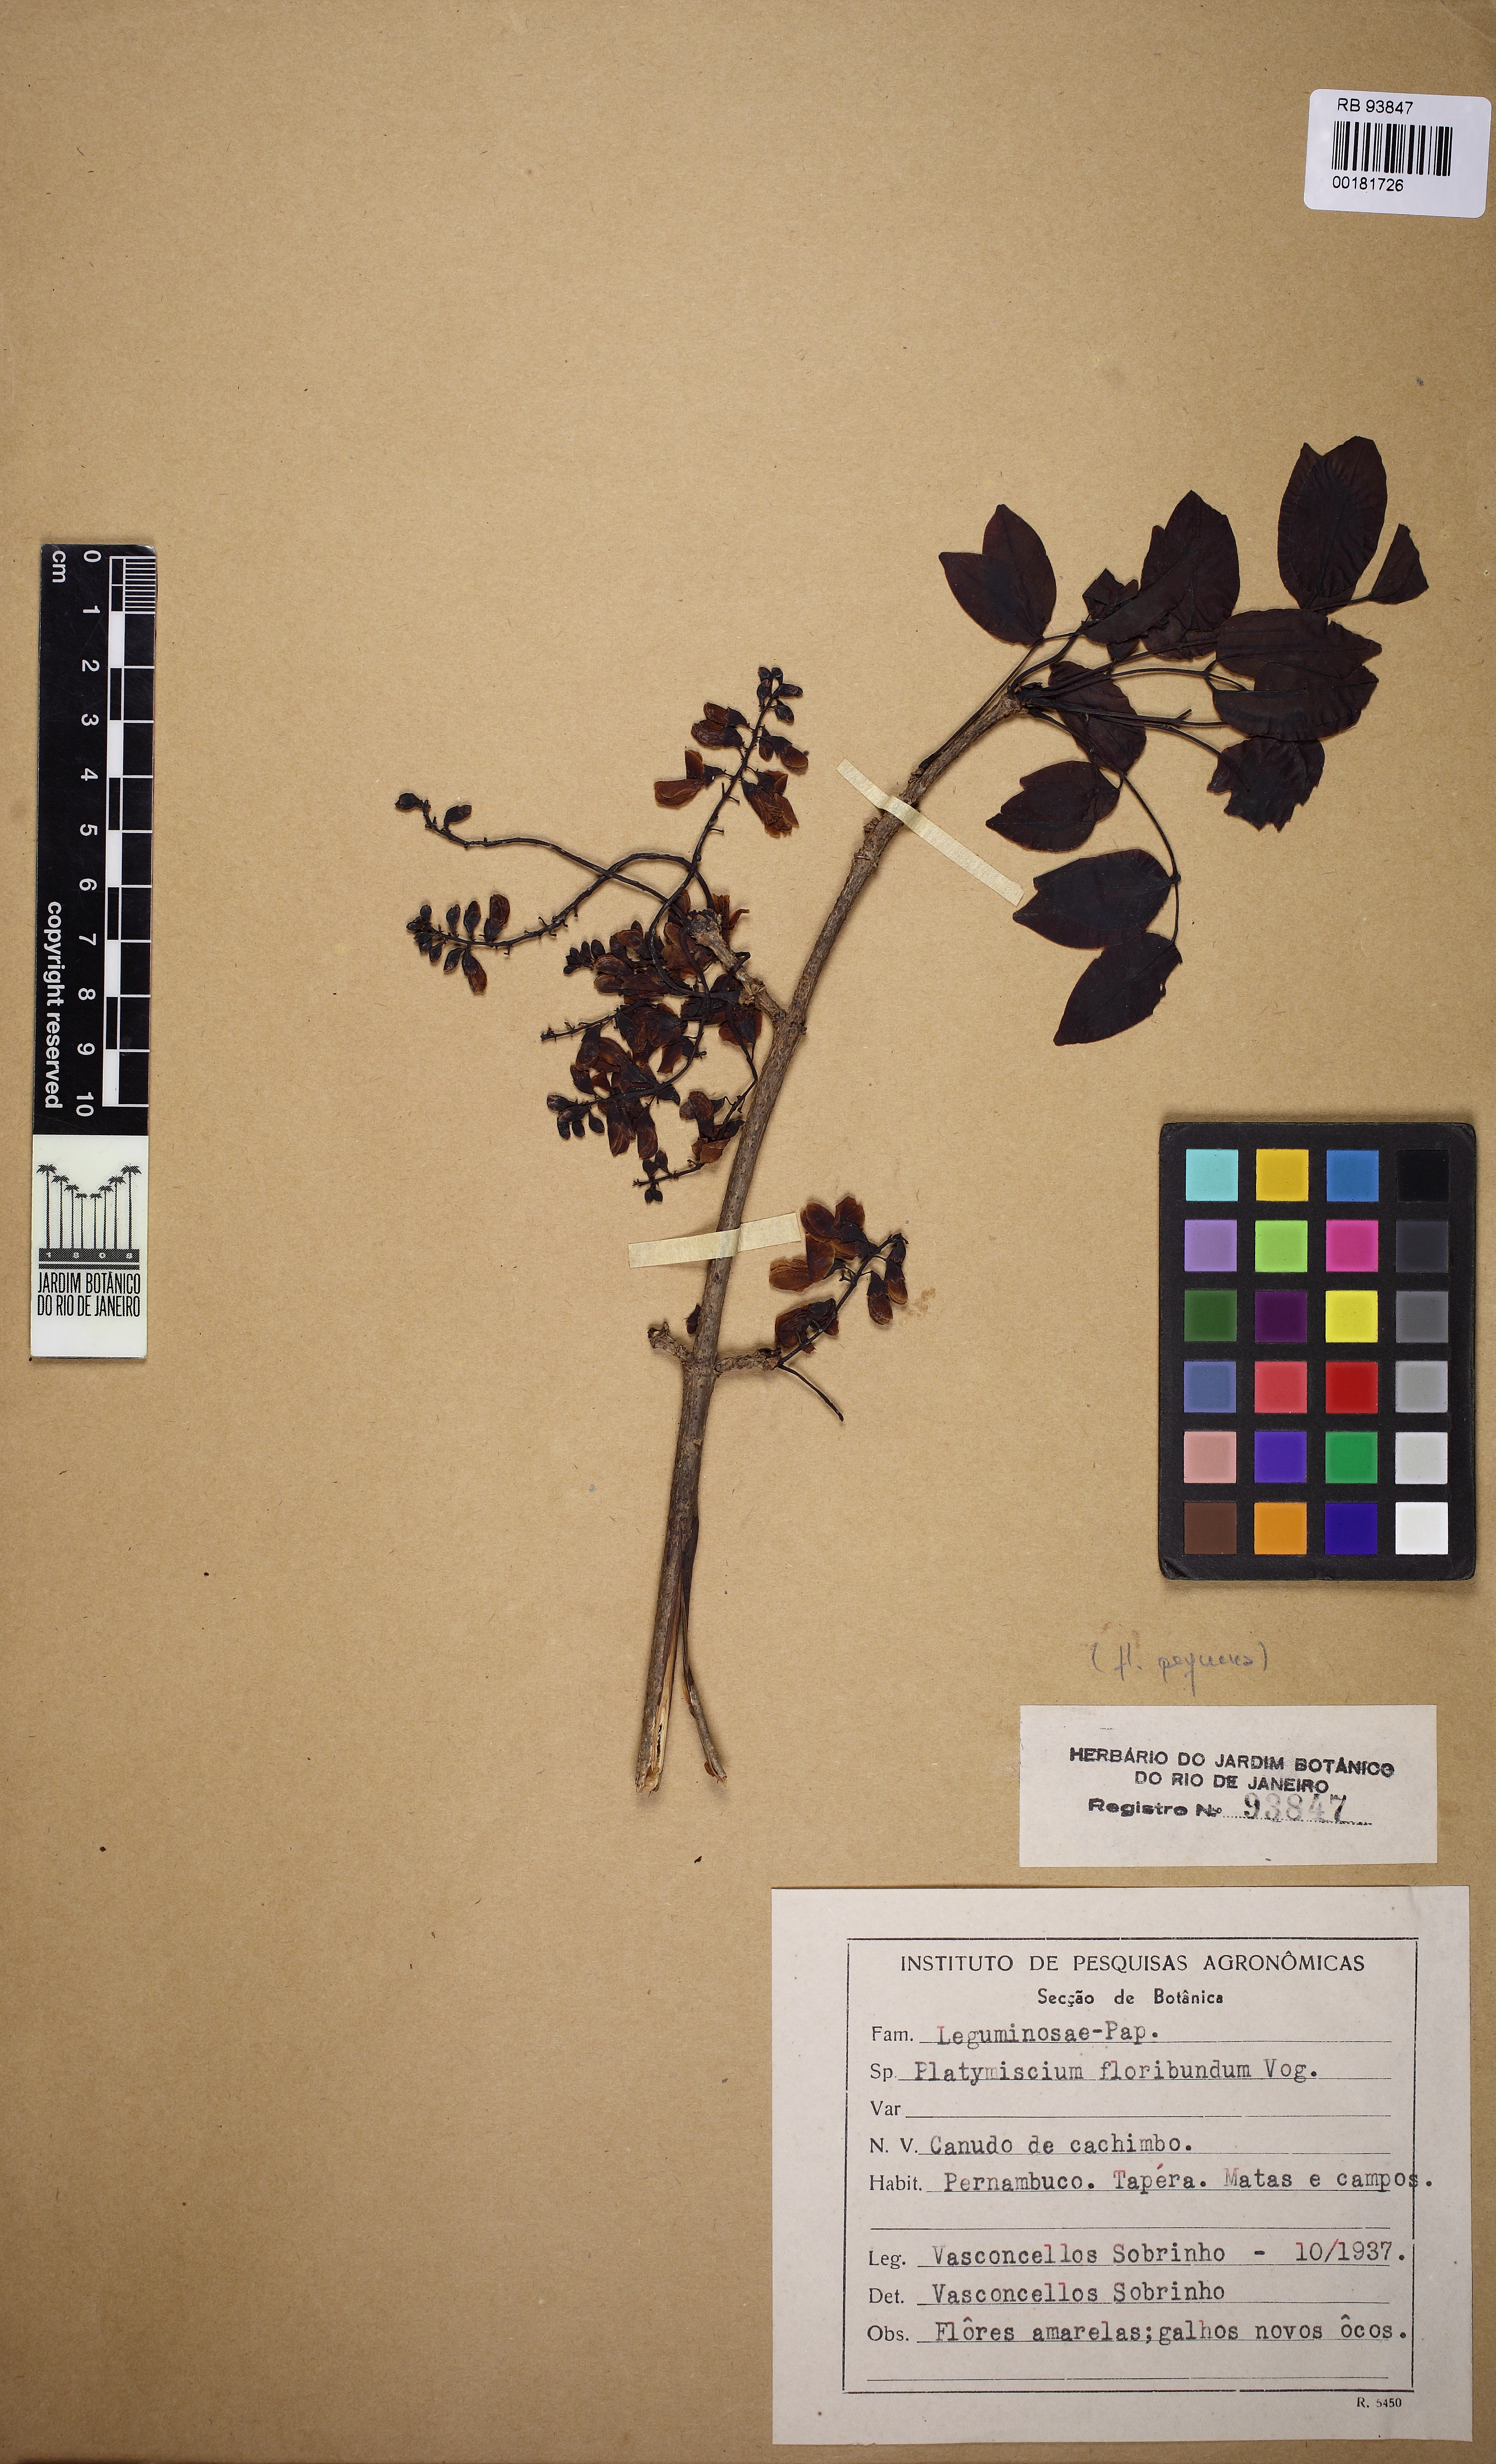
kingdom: Plantae
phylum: Tracheophyta
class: Magnoliopsida
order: Fabales
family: Fabaceae
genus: Platymiscium
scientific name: Platymiscium floribundum
